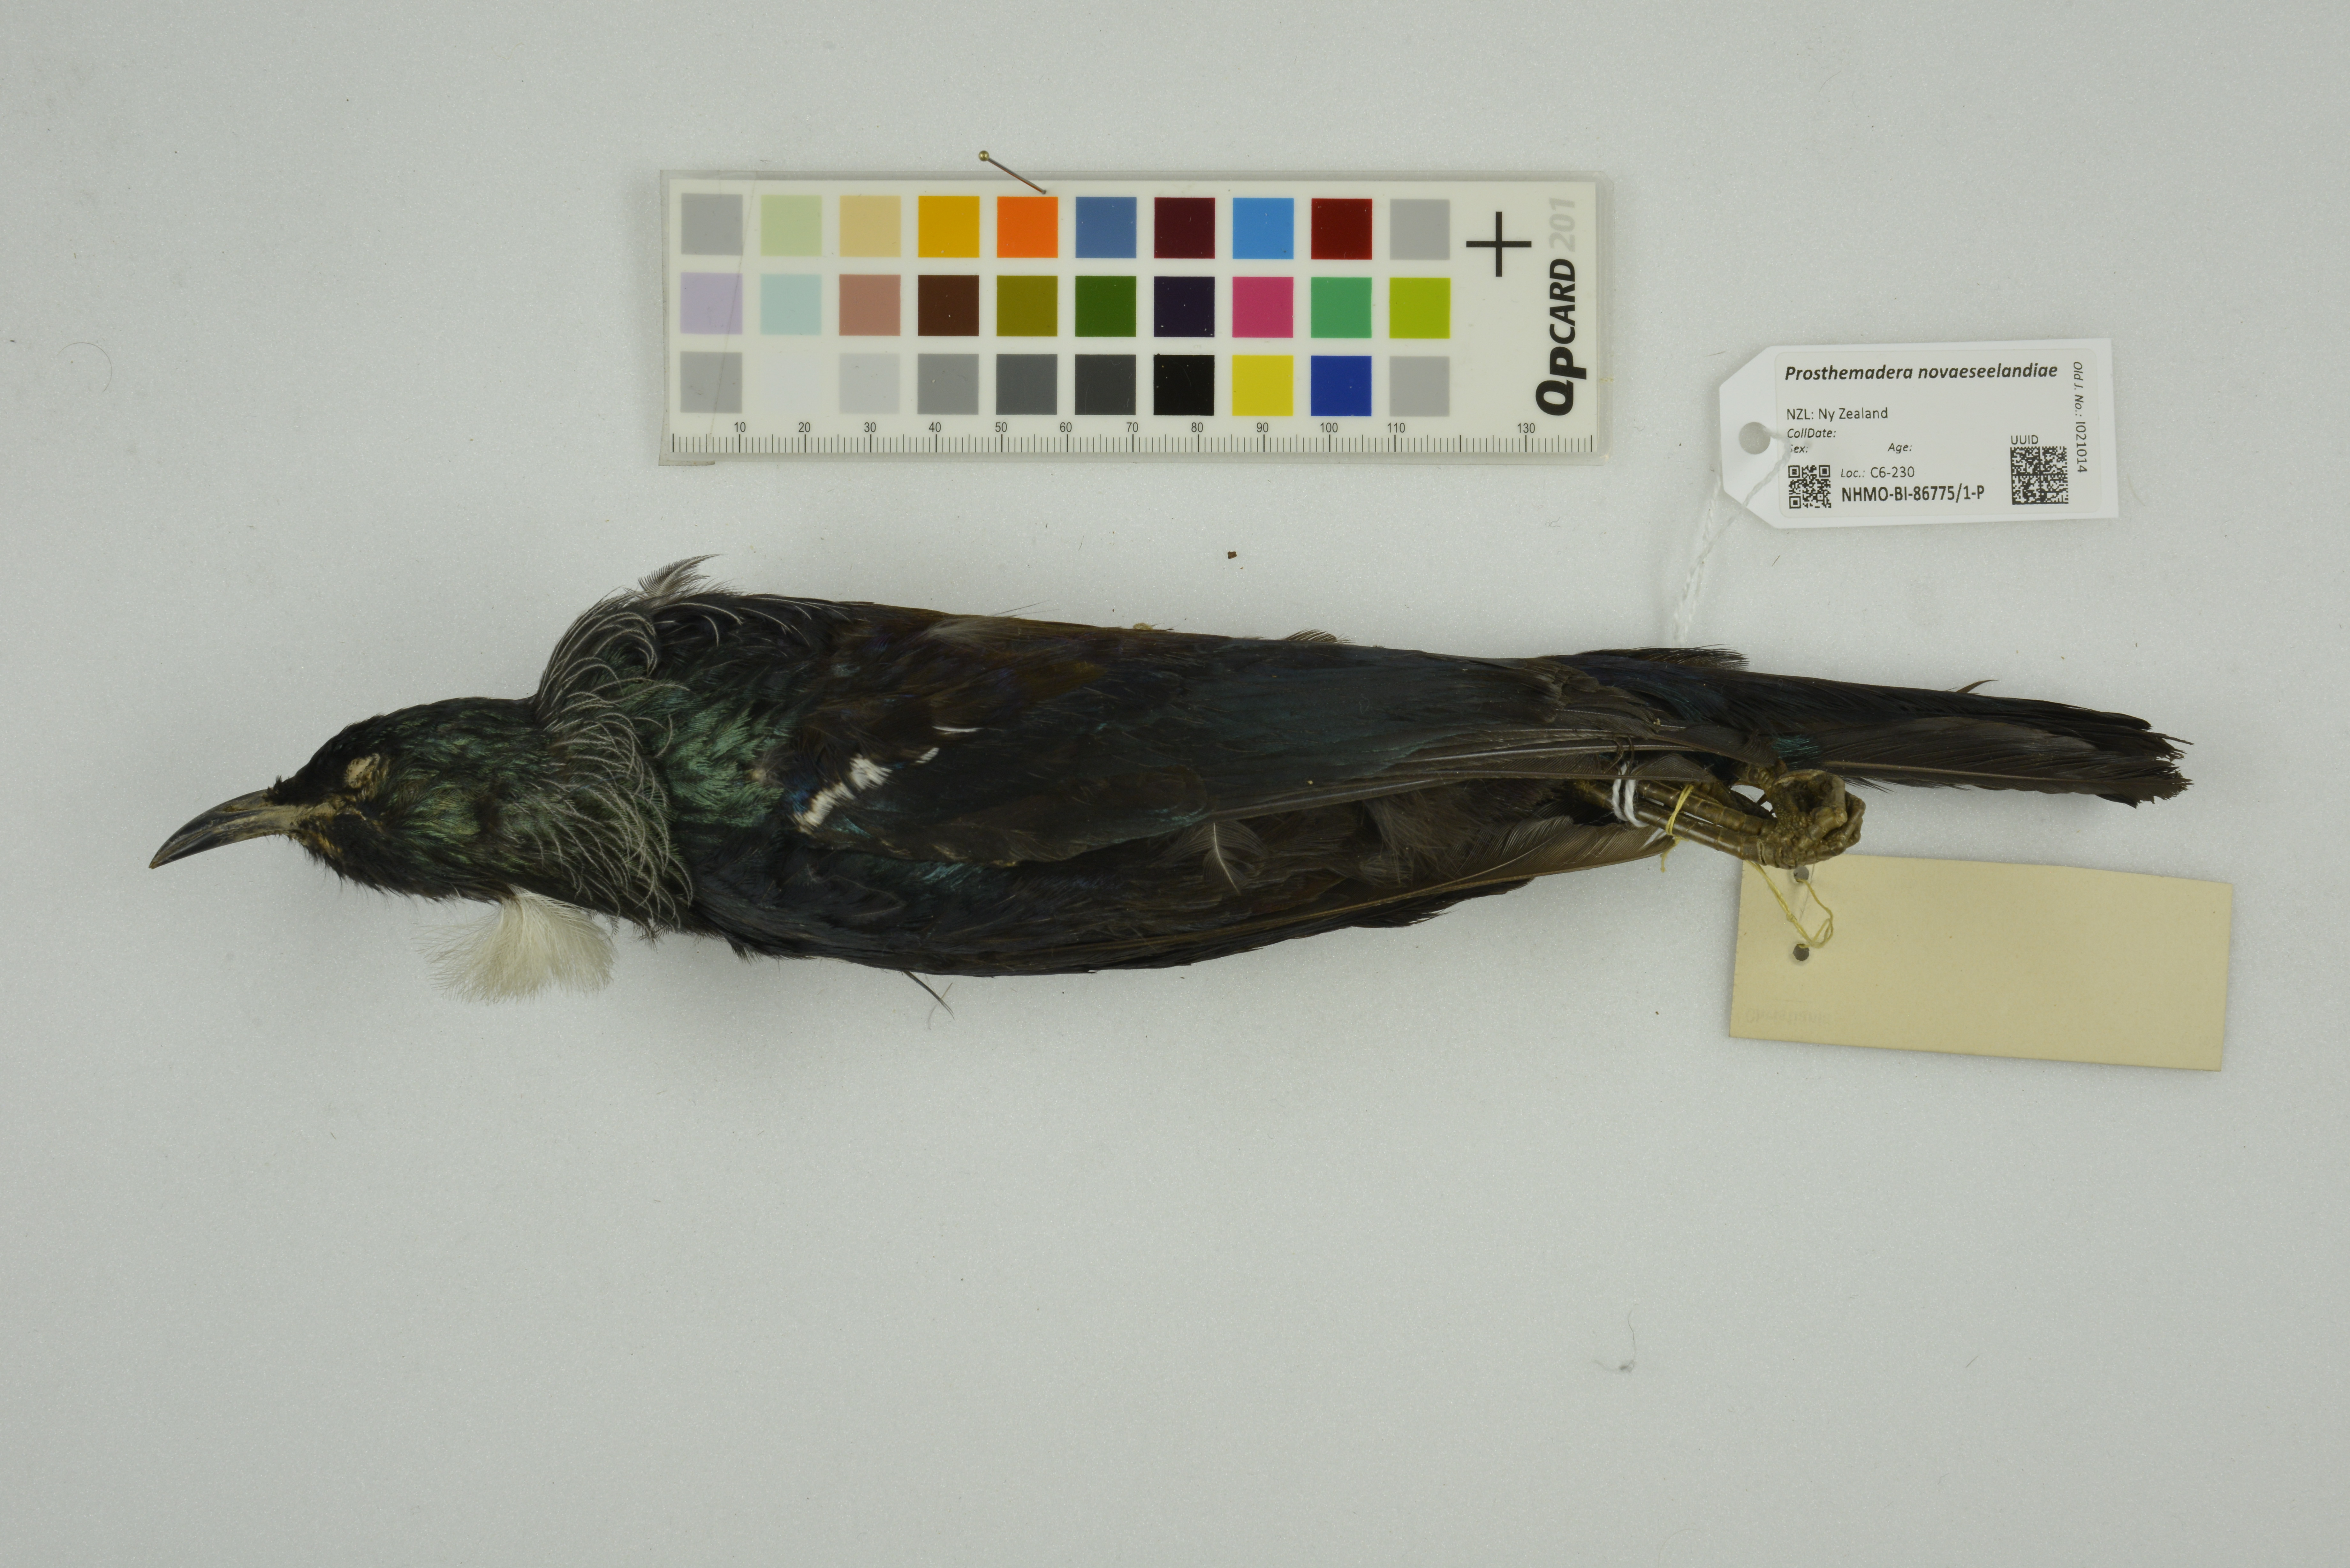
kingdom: Animalia
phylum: Chordata
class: Aves
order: Passeriformes
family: Meliphagidae
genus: Prosthemadera
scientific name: Prosthemadera novaeseelandiae
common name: Tui
